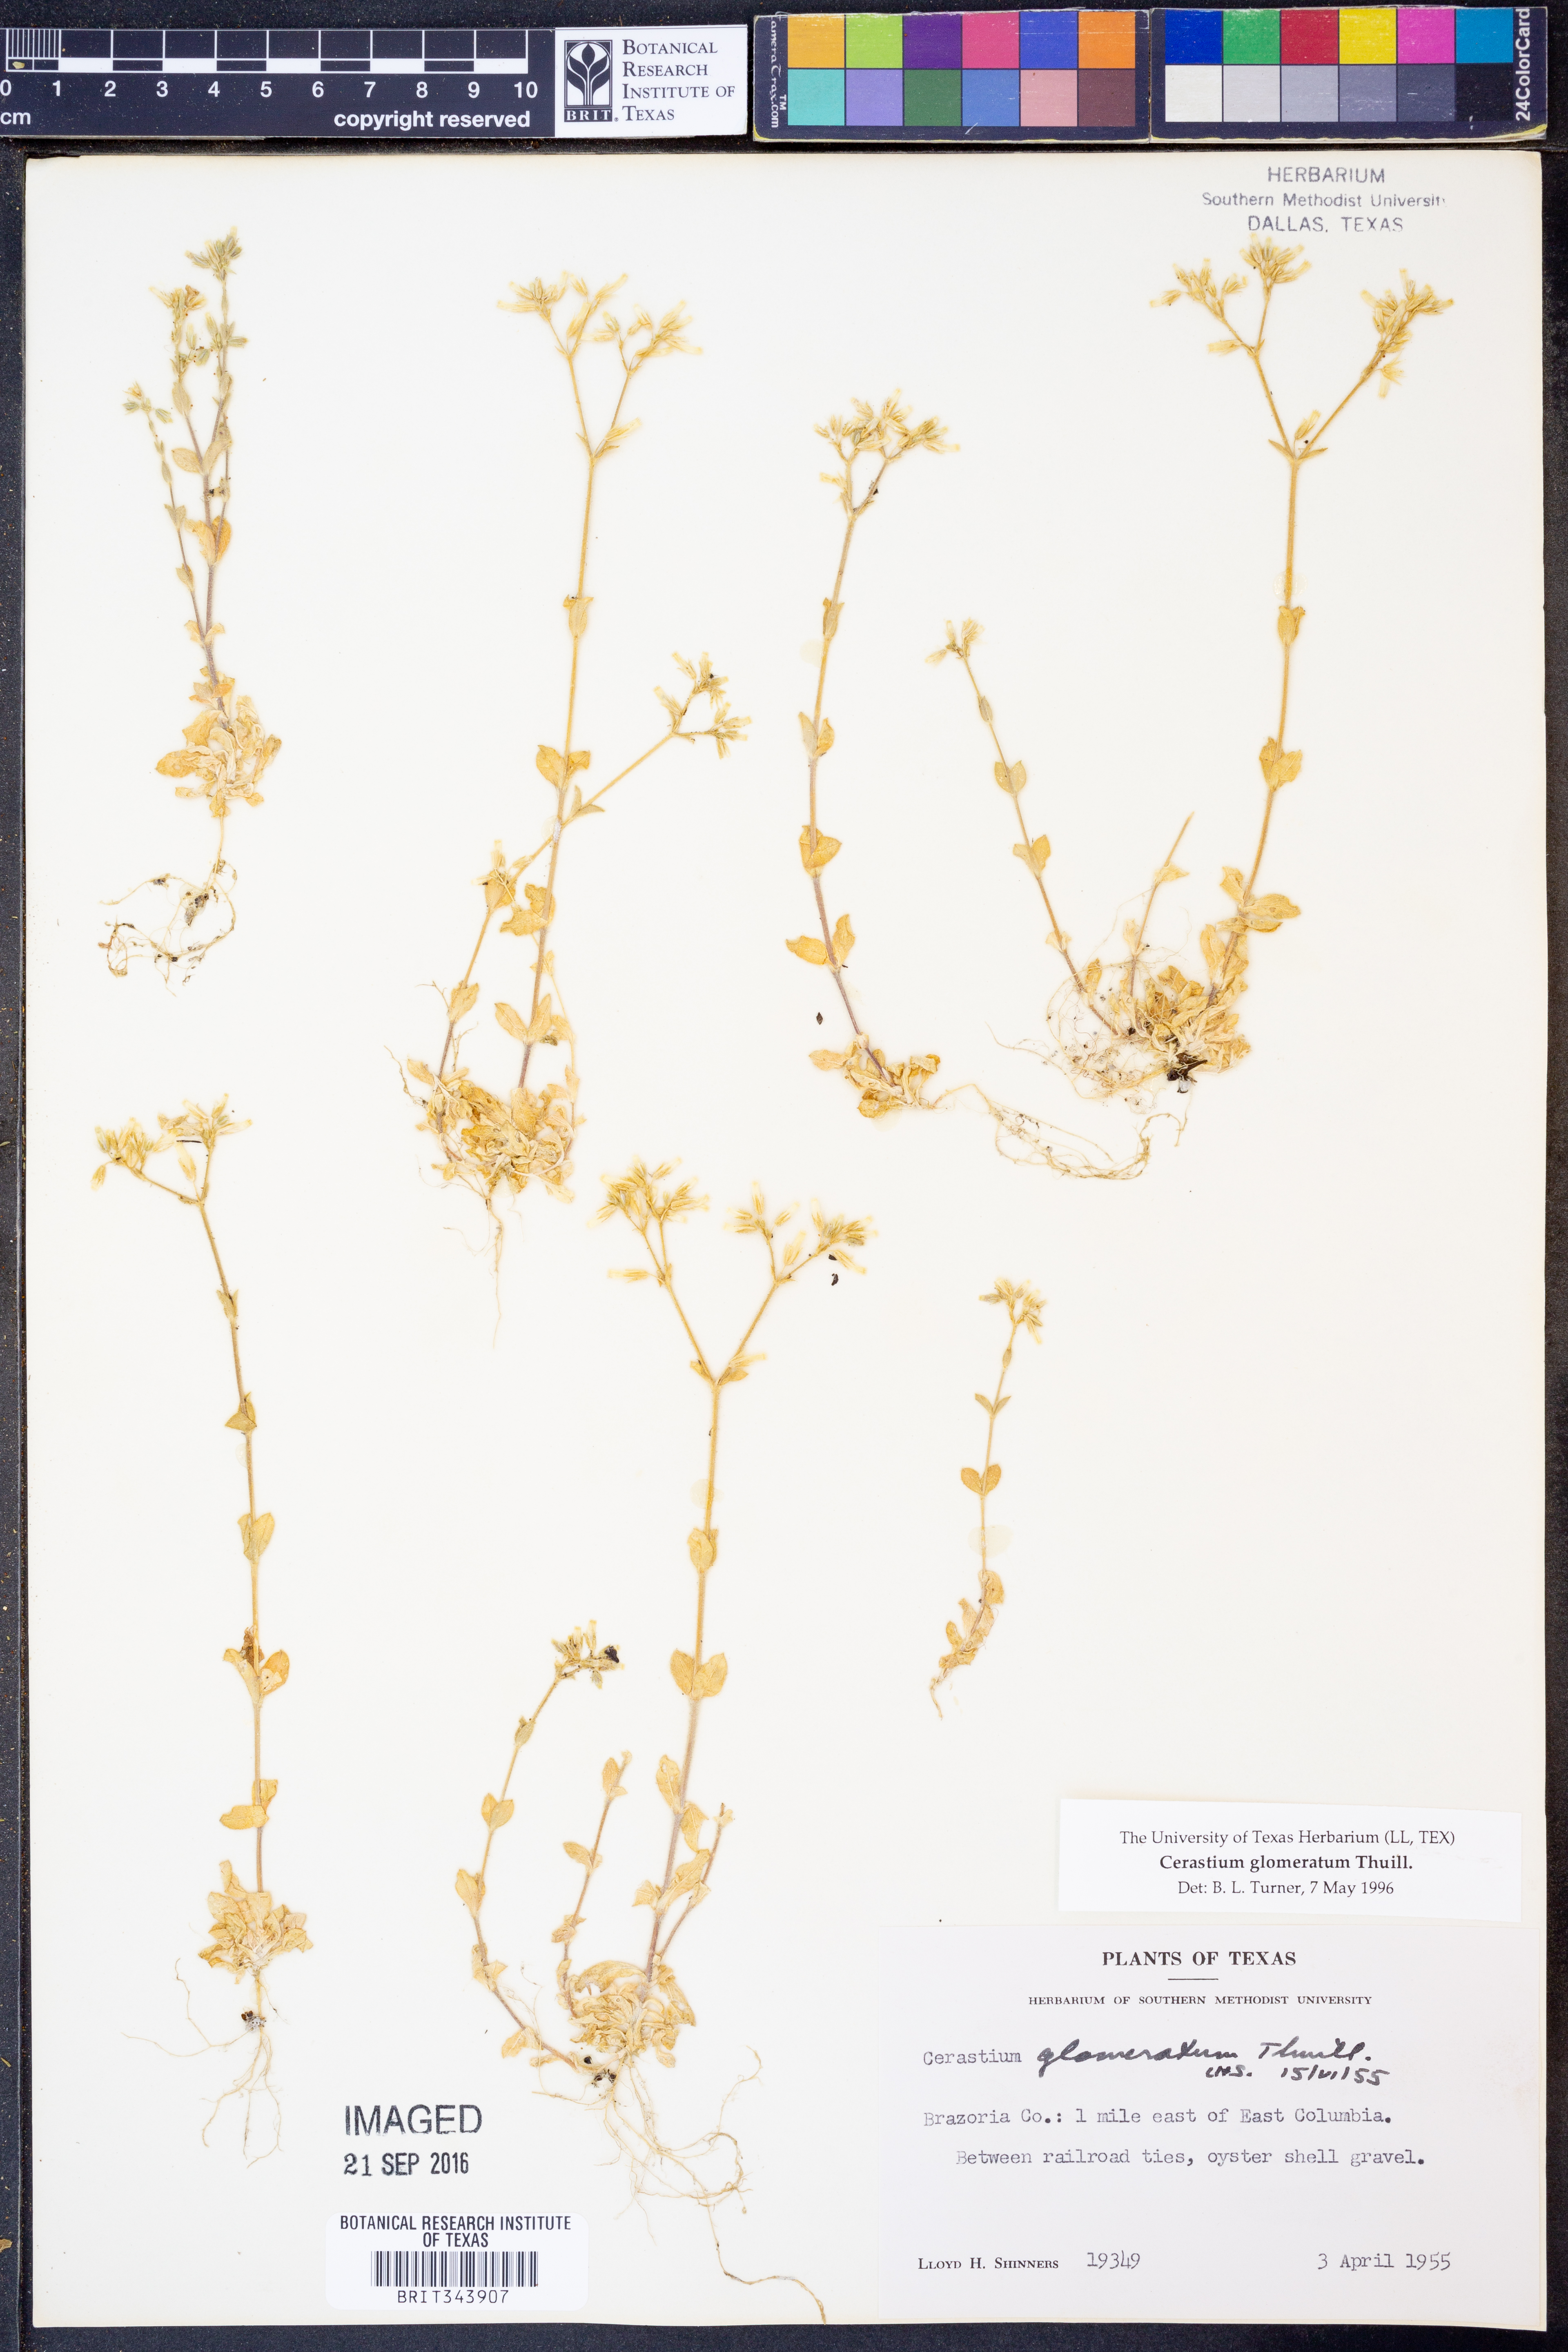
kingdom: Plantae
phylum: Tracheophyta
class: Magnoliopsida
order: Caryophyllales
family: Caryophyllaceae
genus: Cerastium
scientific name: Cerastium glomeratum
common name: Sticky chickweed
